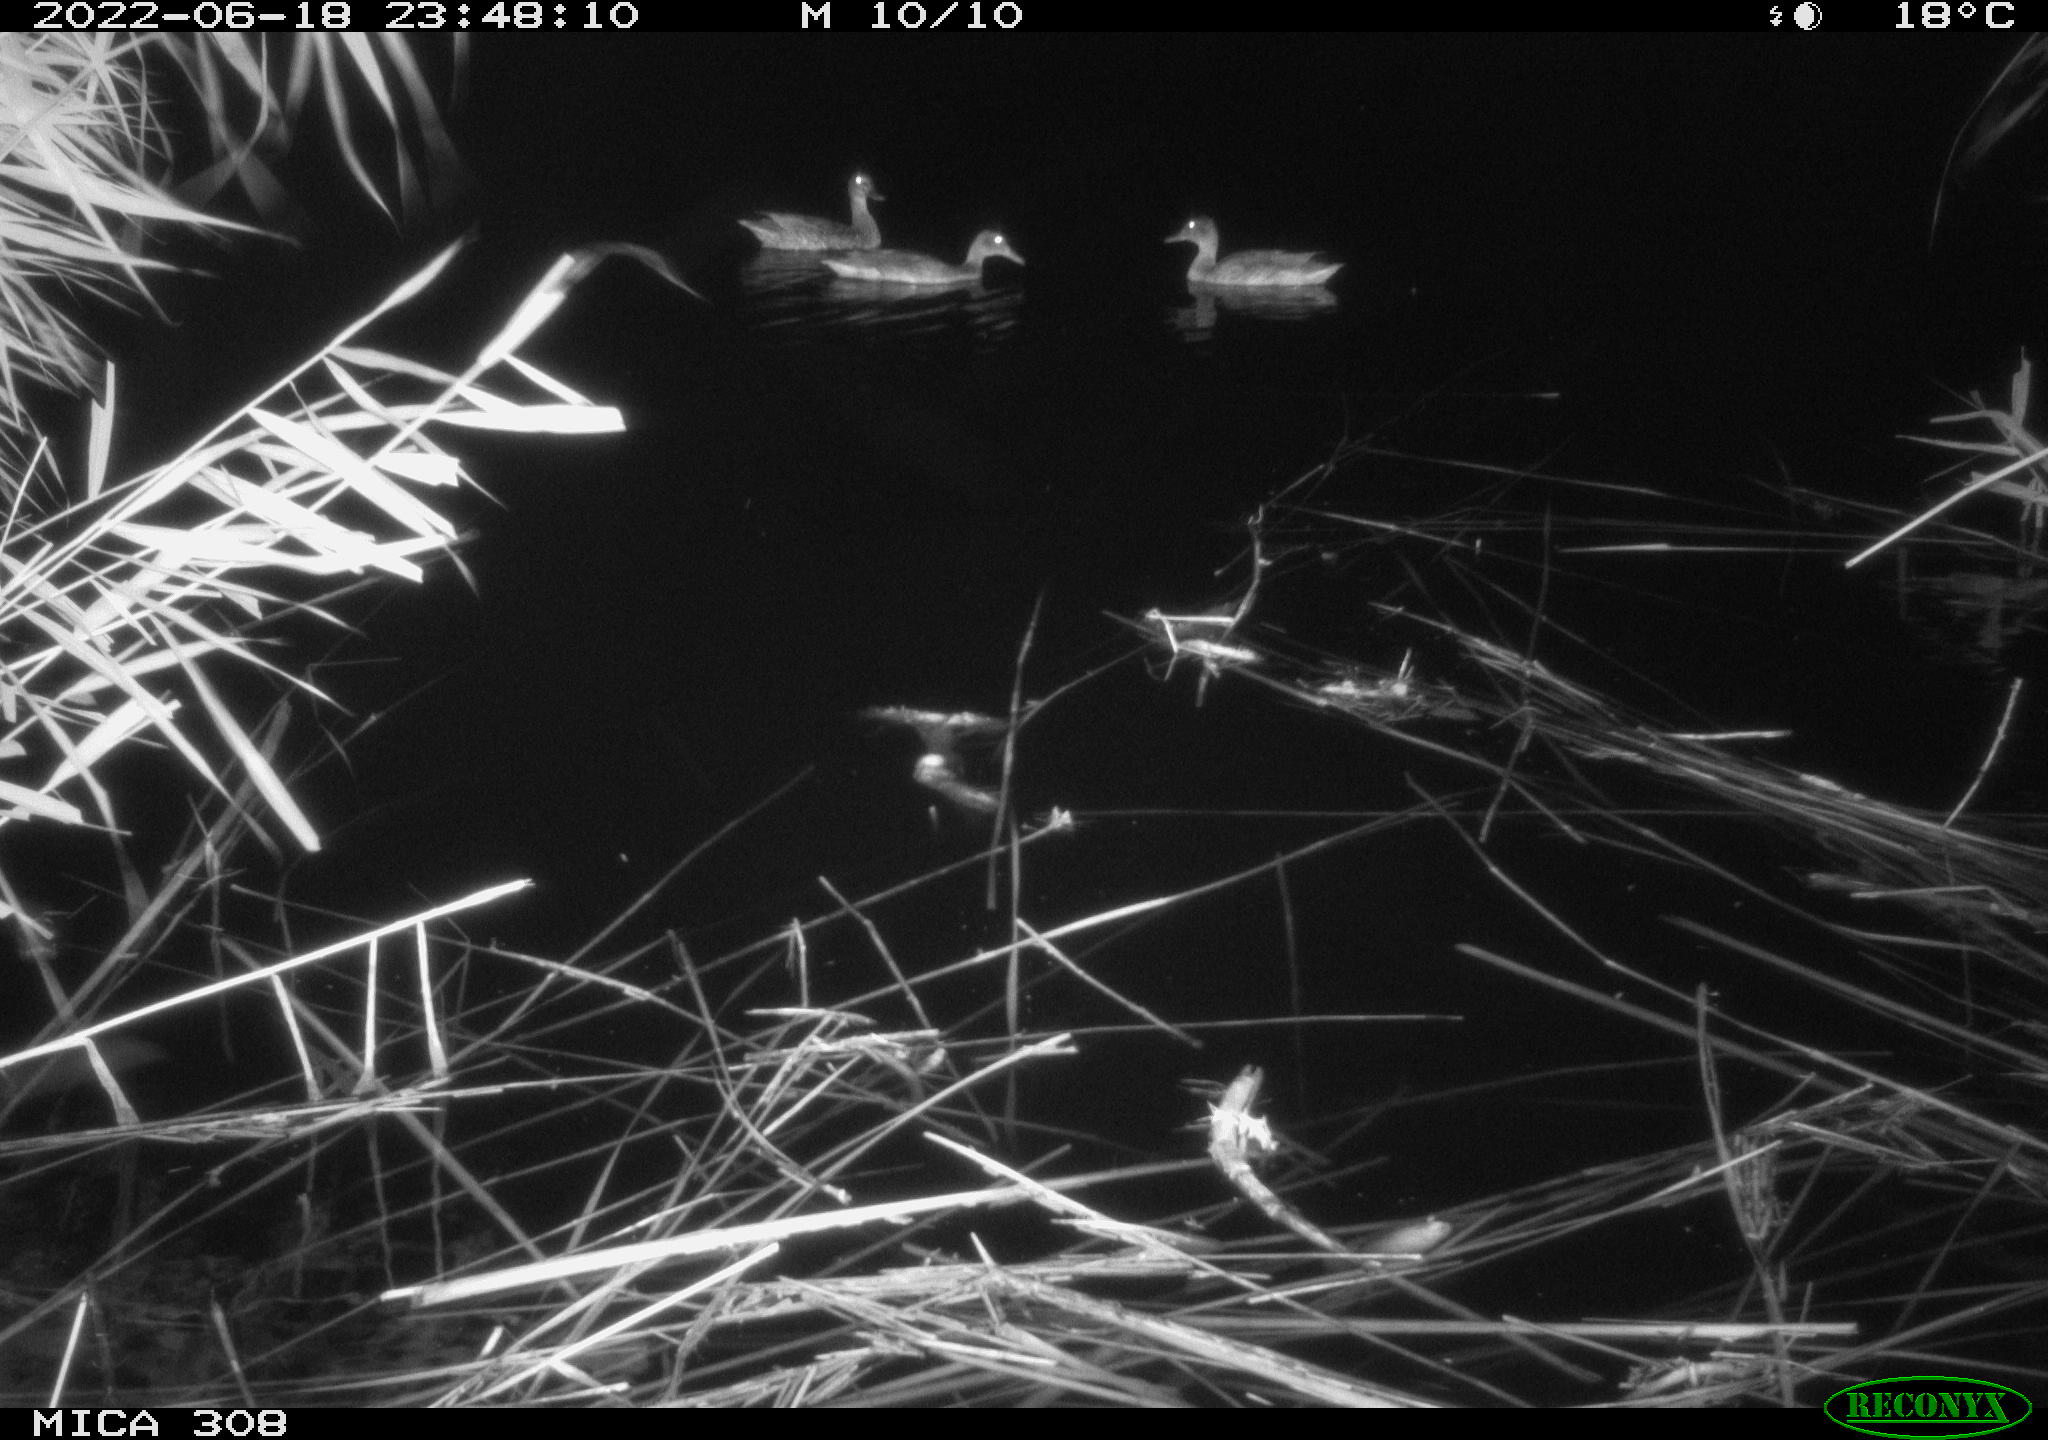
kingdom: Animalia
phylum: Chordata
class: Aves
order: Anseriformes
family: Anatidae
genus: Anas
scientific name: Anas platyrhynchos
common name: Mallard
